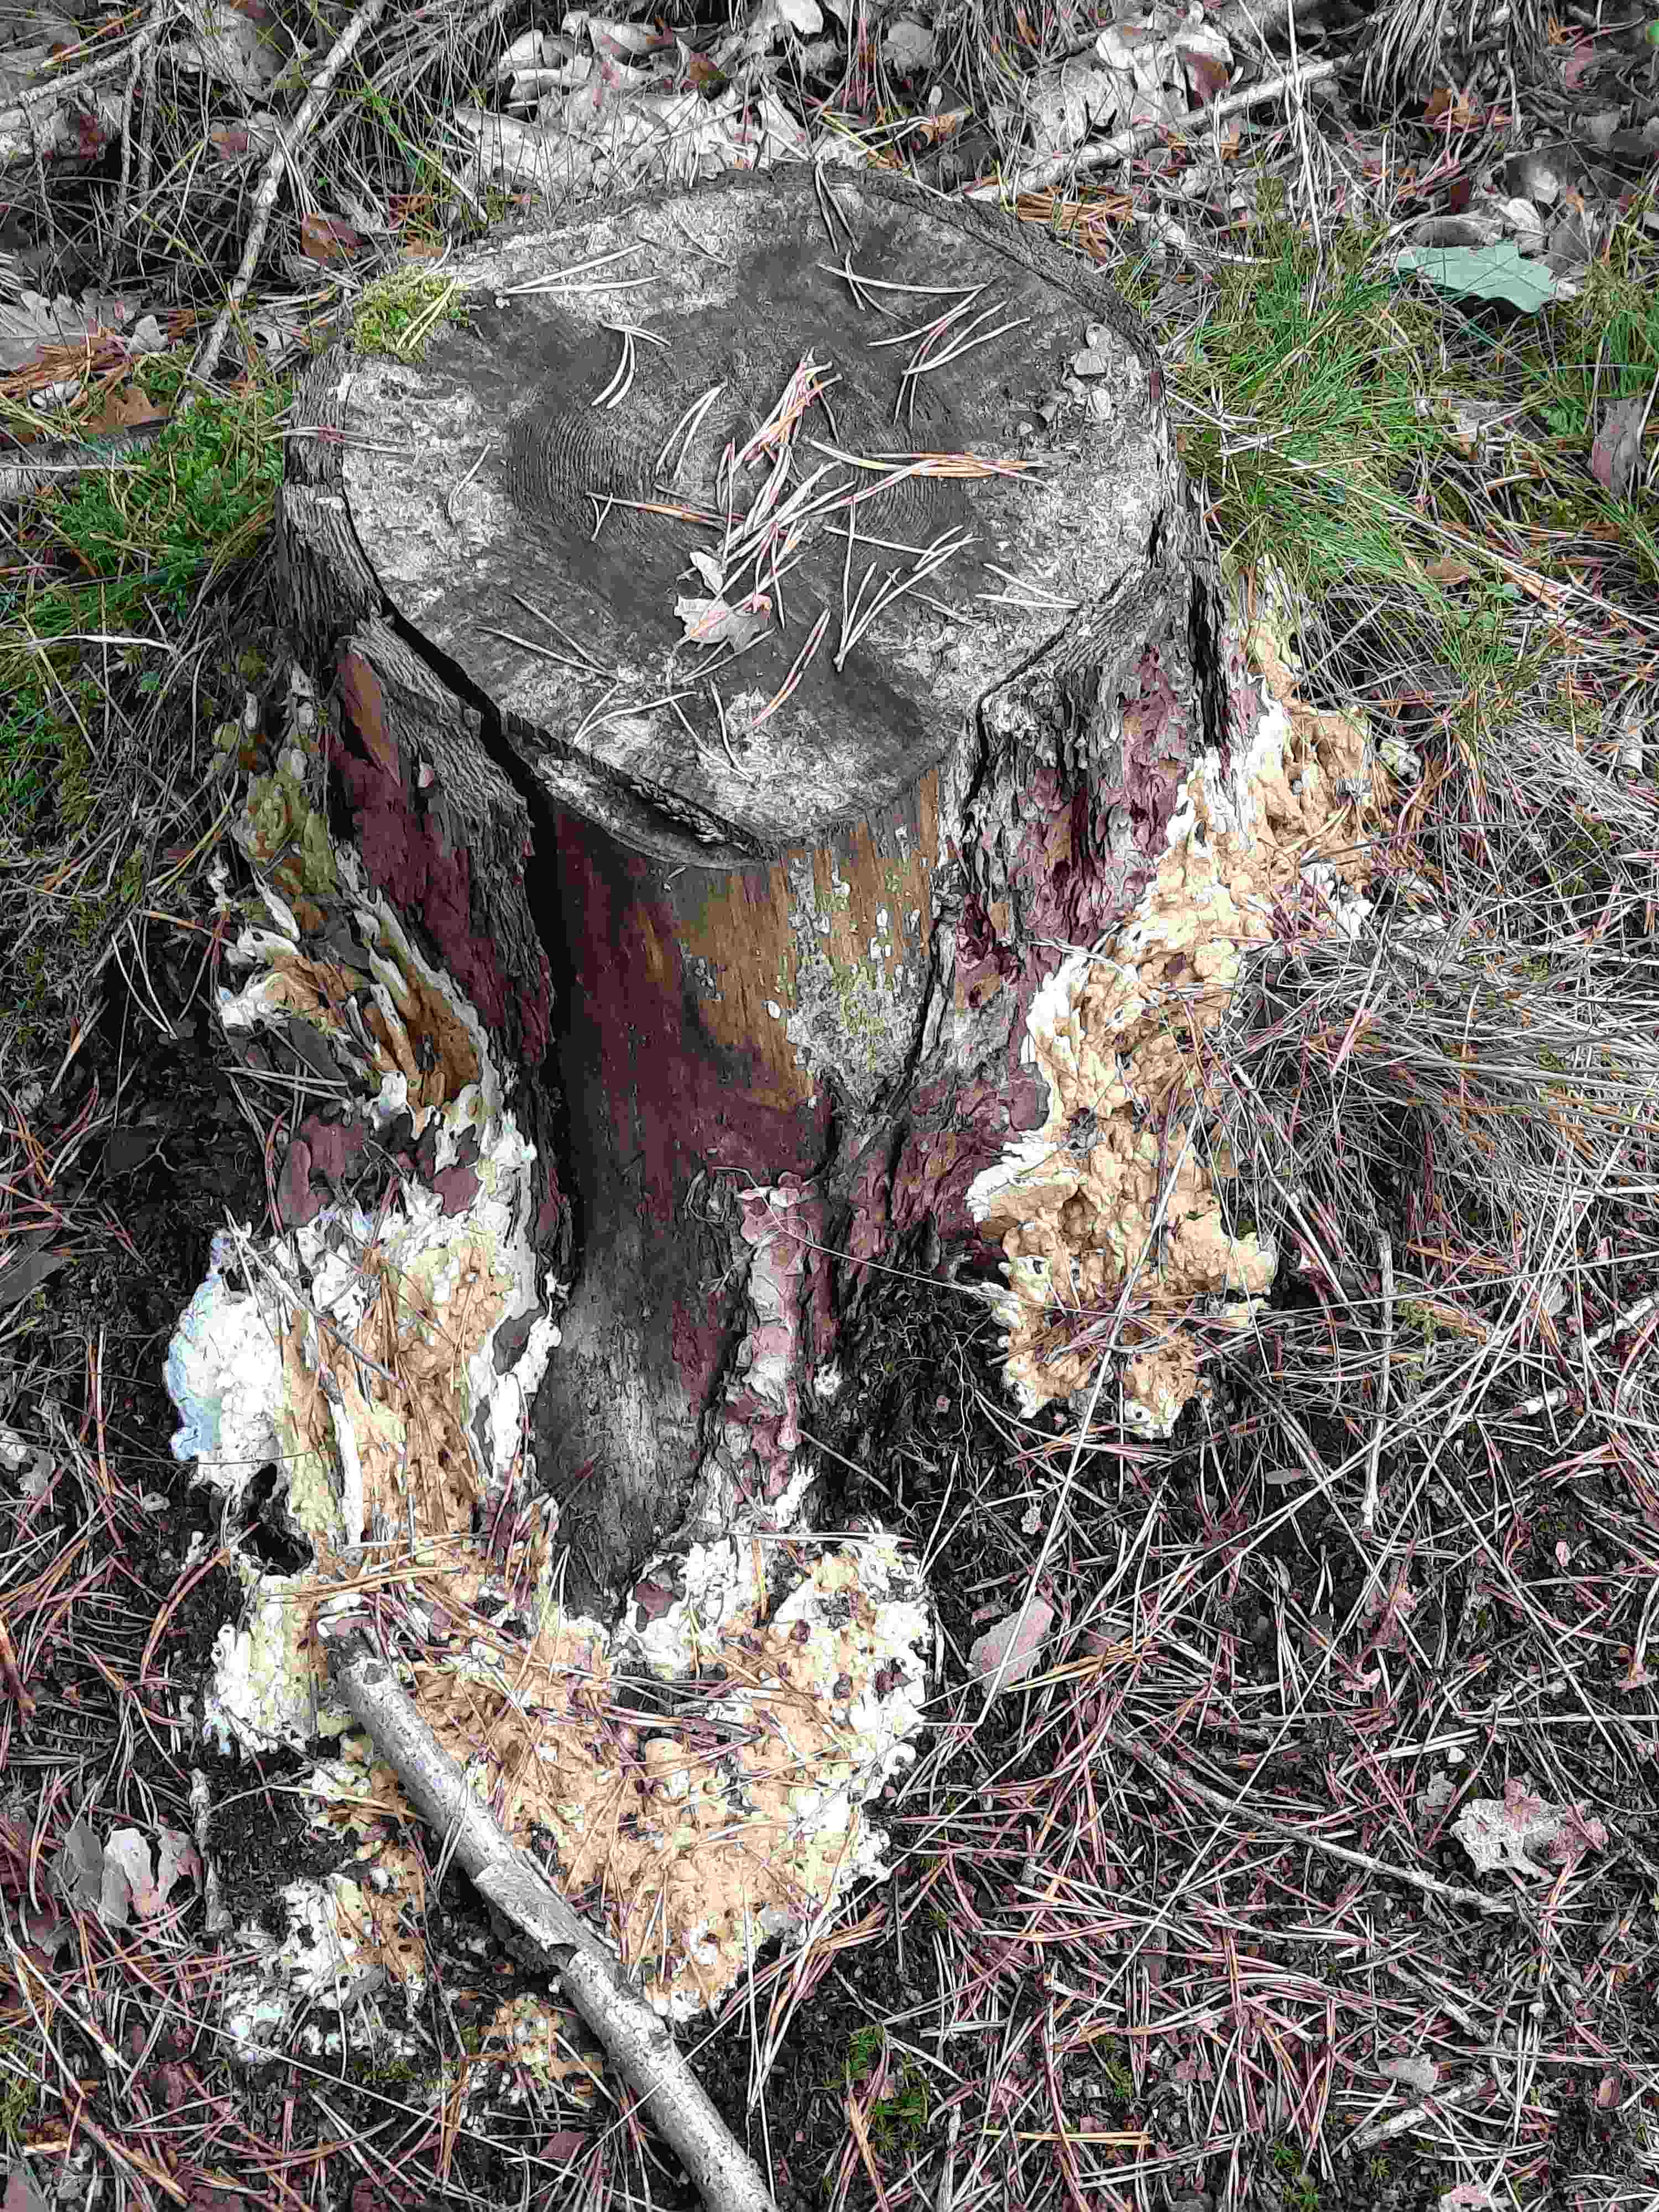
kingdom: Fungi
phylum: Ascomycota
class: Sordariomycetes
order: Hypocreales
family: Hypocreaceae
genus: Trichoderma
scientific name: Trichoderma citrinum
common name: udbredt kødkerne
